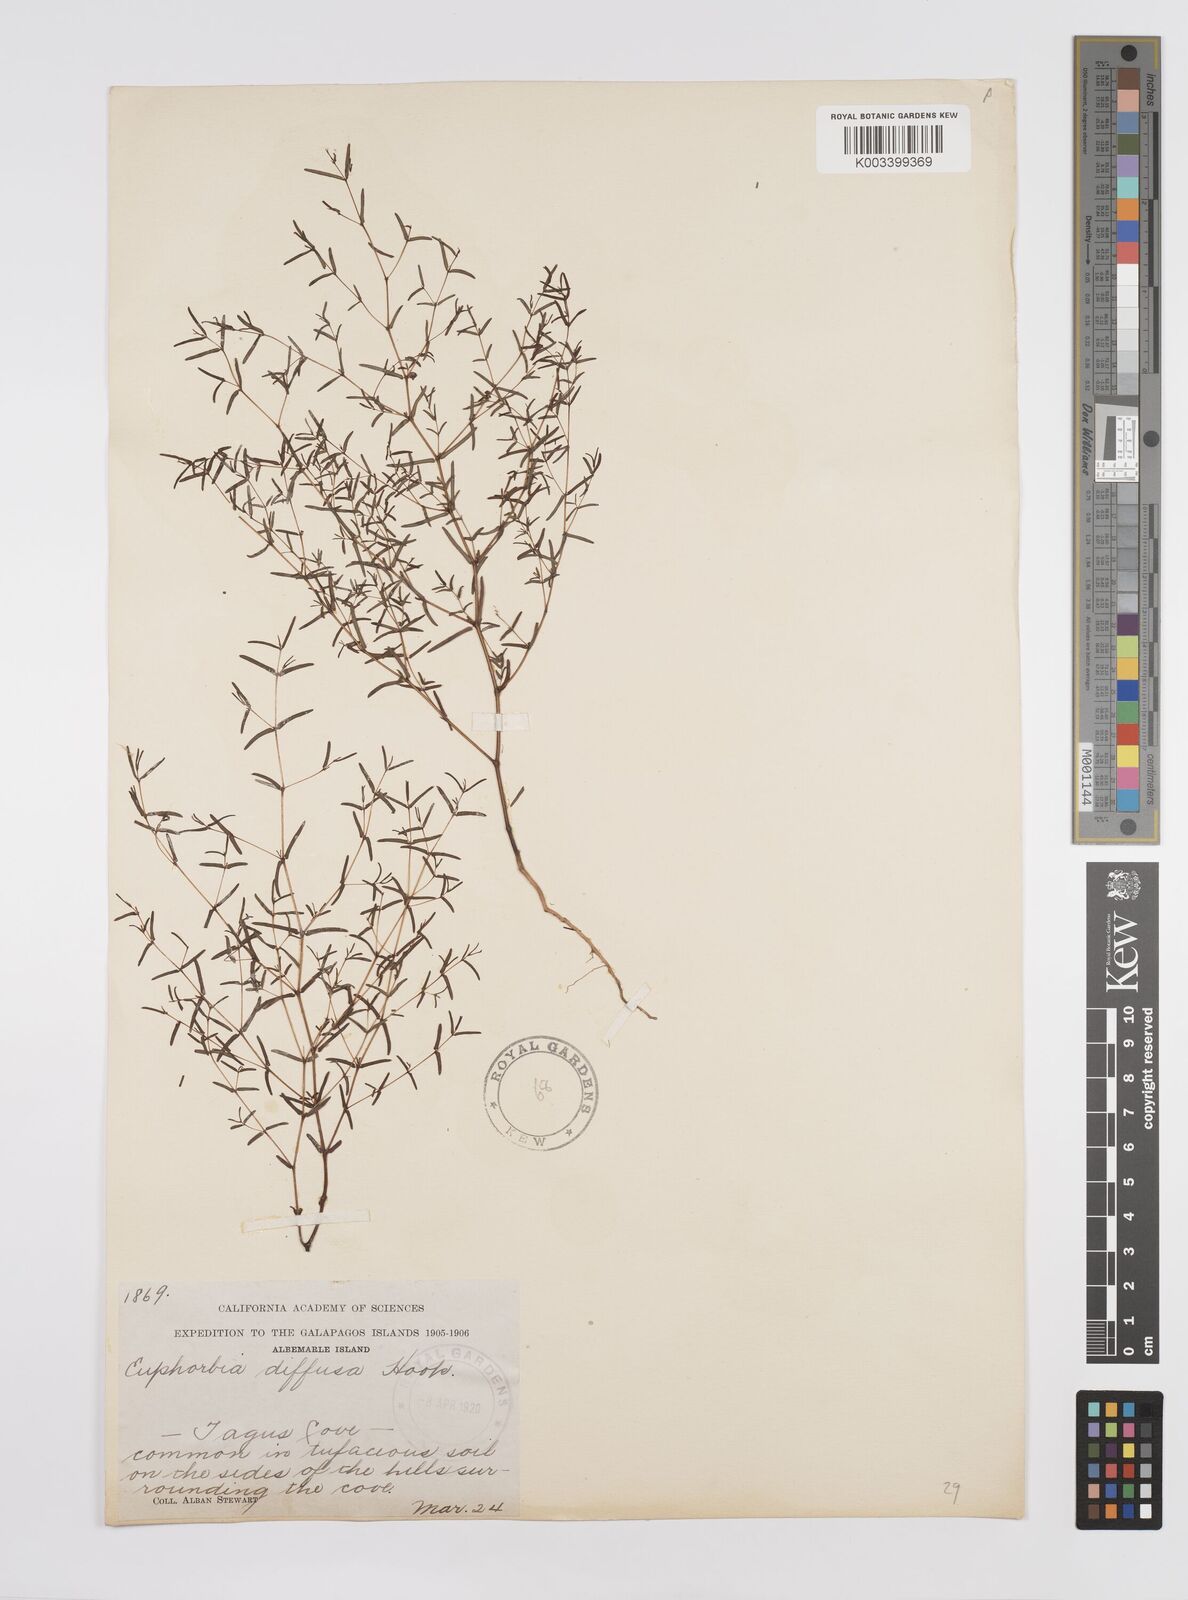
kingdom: Plantae
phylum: Tracheophyta
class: Magnoliopsida
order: Malpighiales
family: Euphorbiaceae
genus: Euphorbia
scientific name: Euphorbia punctulata
